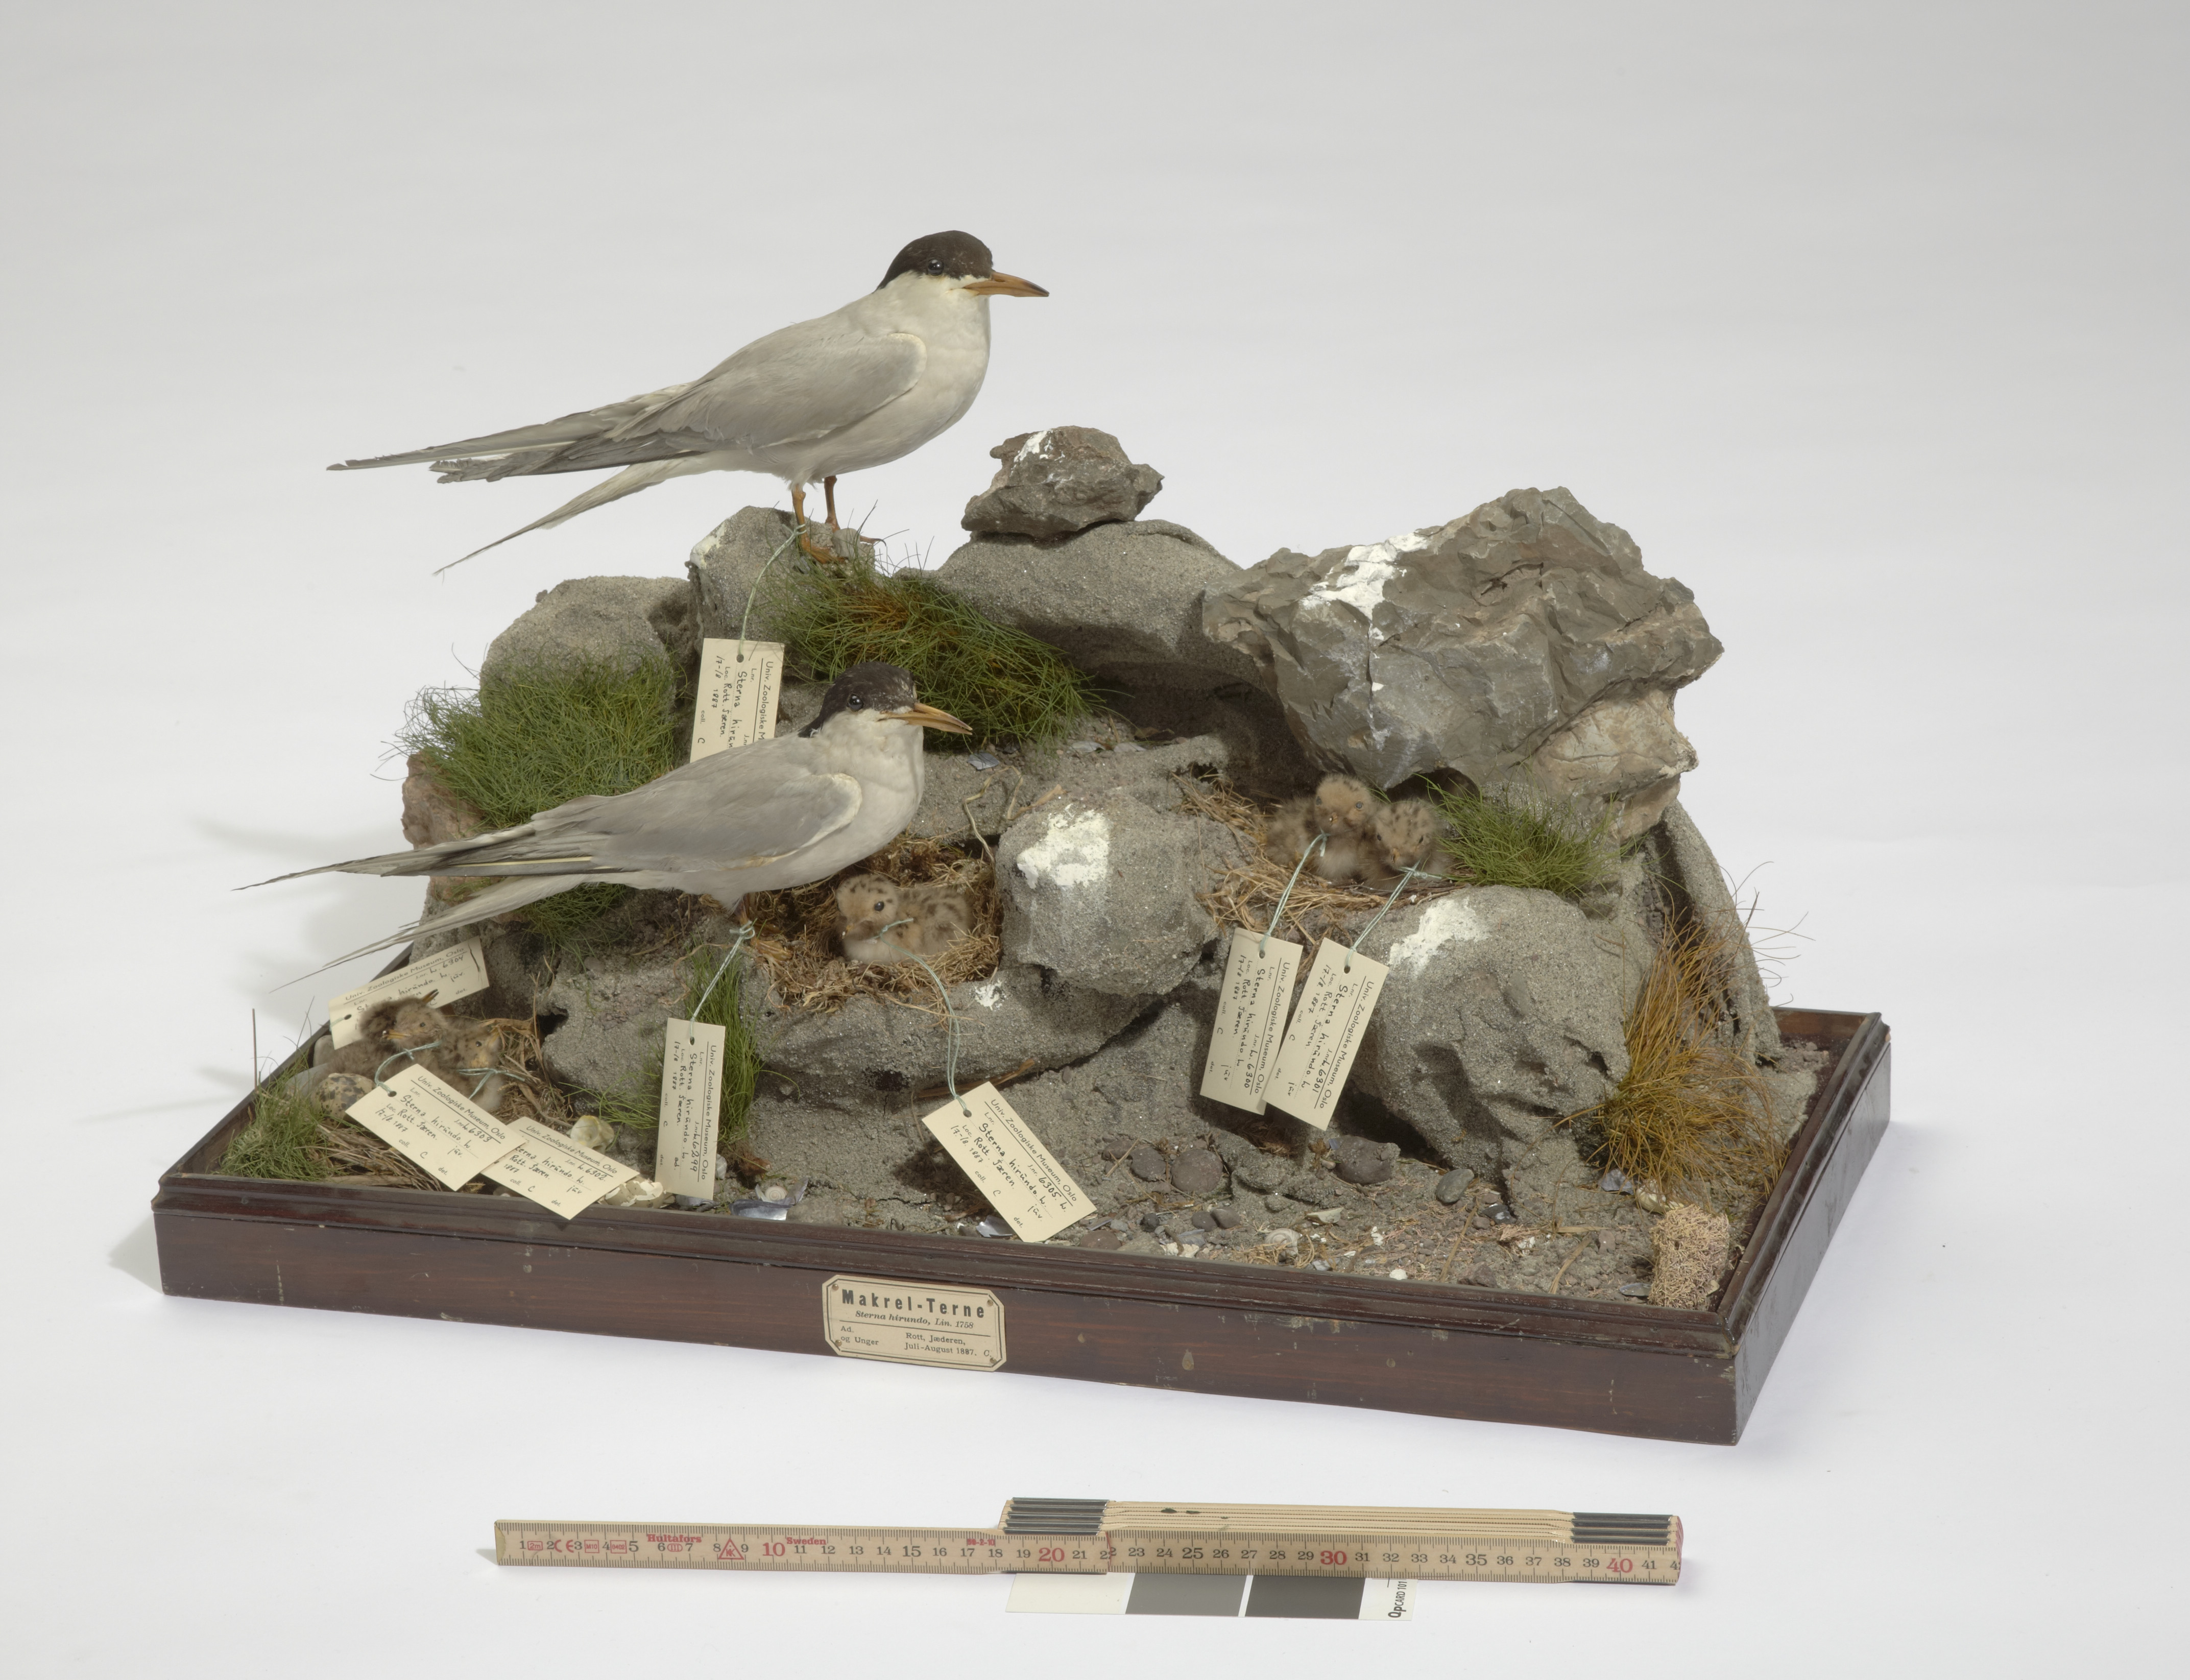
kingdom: Animalia
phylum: Chordata
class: Aves
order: Charadriiformes
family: Laridae
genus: Sterna
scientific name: Sterna hirundo
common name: Common tern
